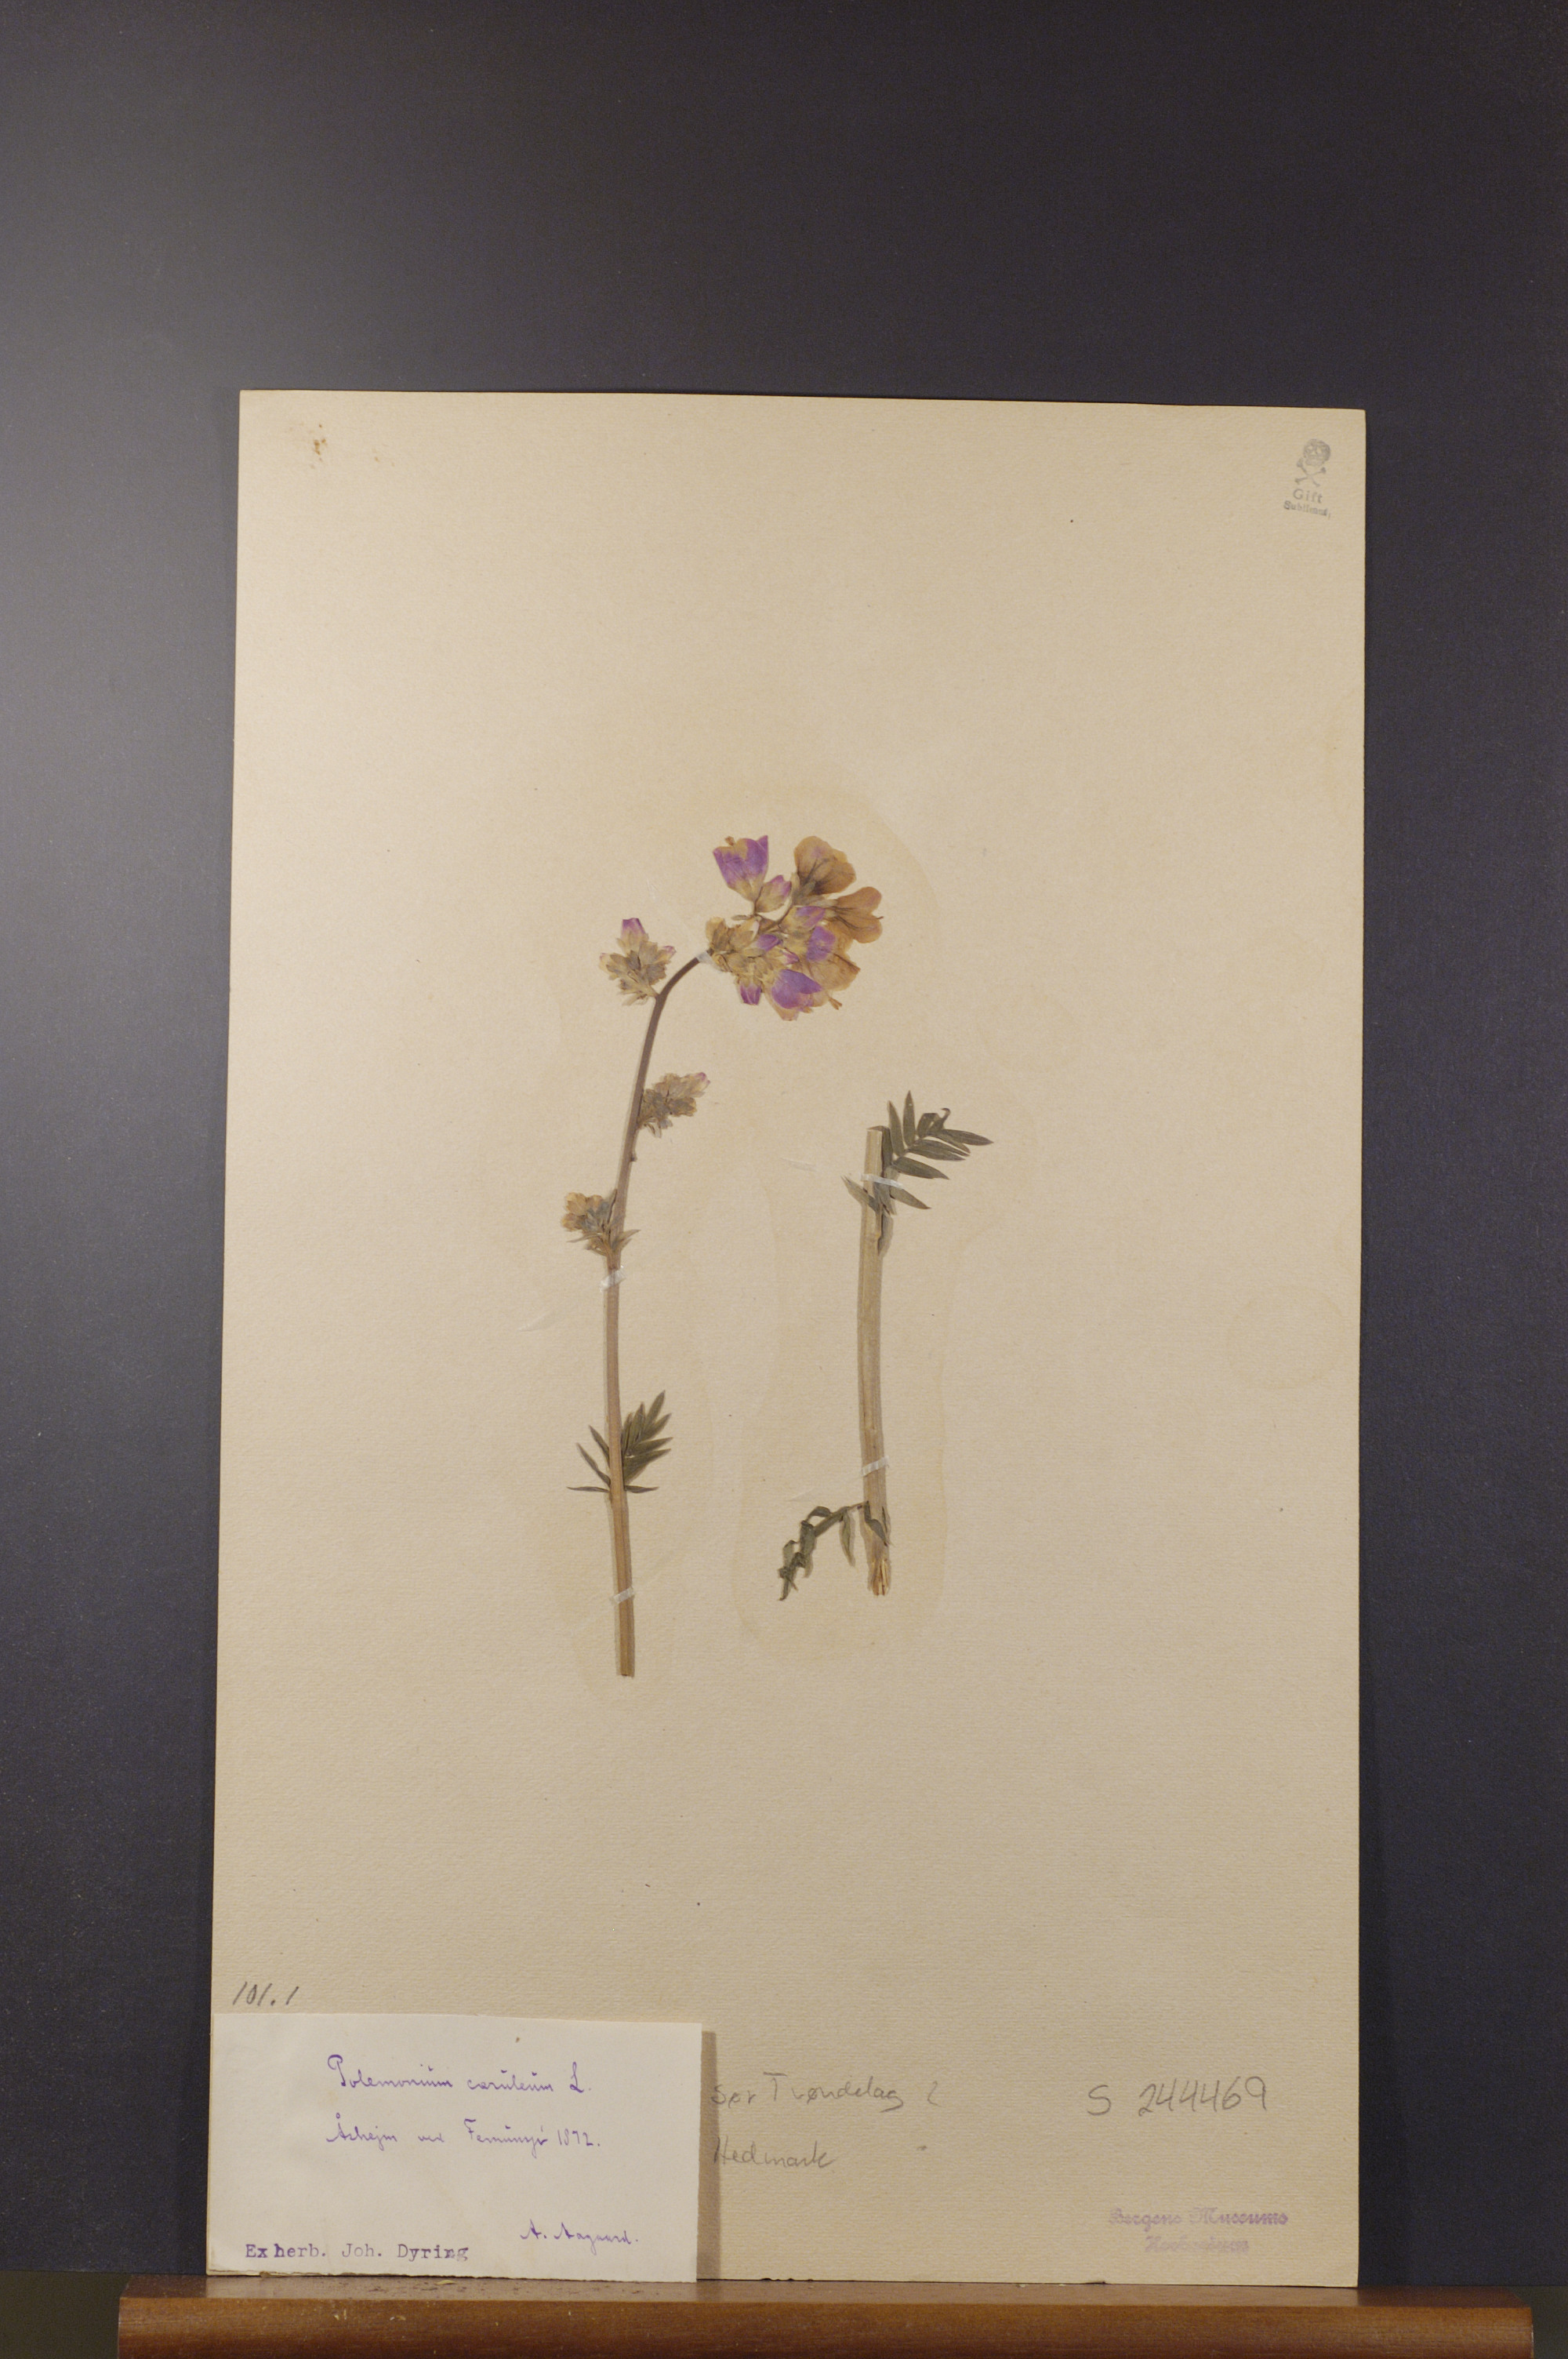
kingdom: Plantae
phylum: Tracheophyta
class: Magnoliopsida
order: Ericales
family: Polemoniaceae
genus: Polemonium
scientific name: Polemonium caeruleum
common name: Jacob's-ladder
